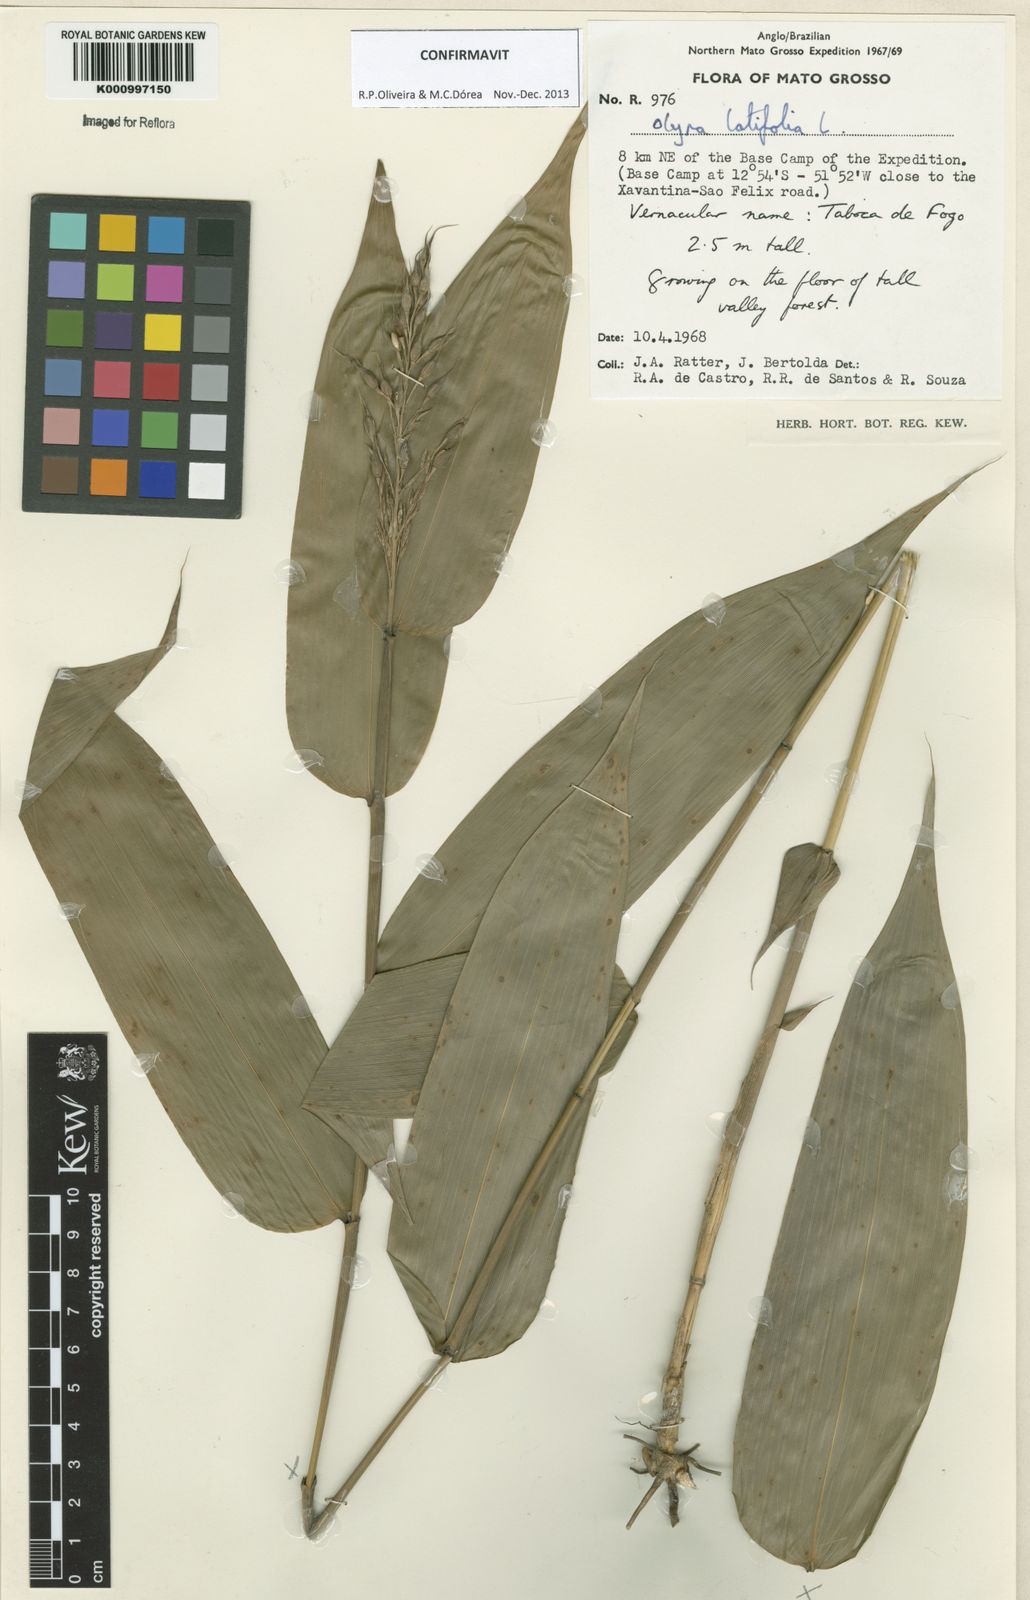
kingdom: Plantae
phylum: Tracheophyta
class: Liliopsida
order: Poales
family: Poaceae
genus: Olyra
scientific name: Olyra latifolia
